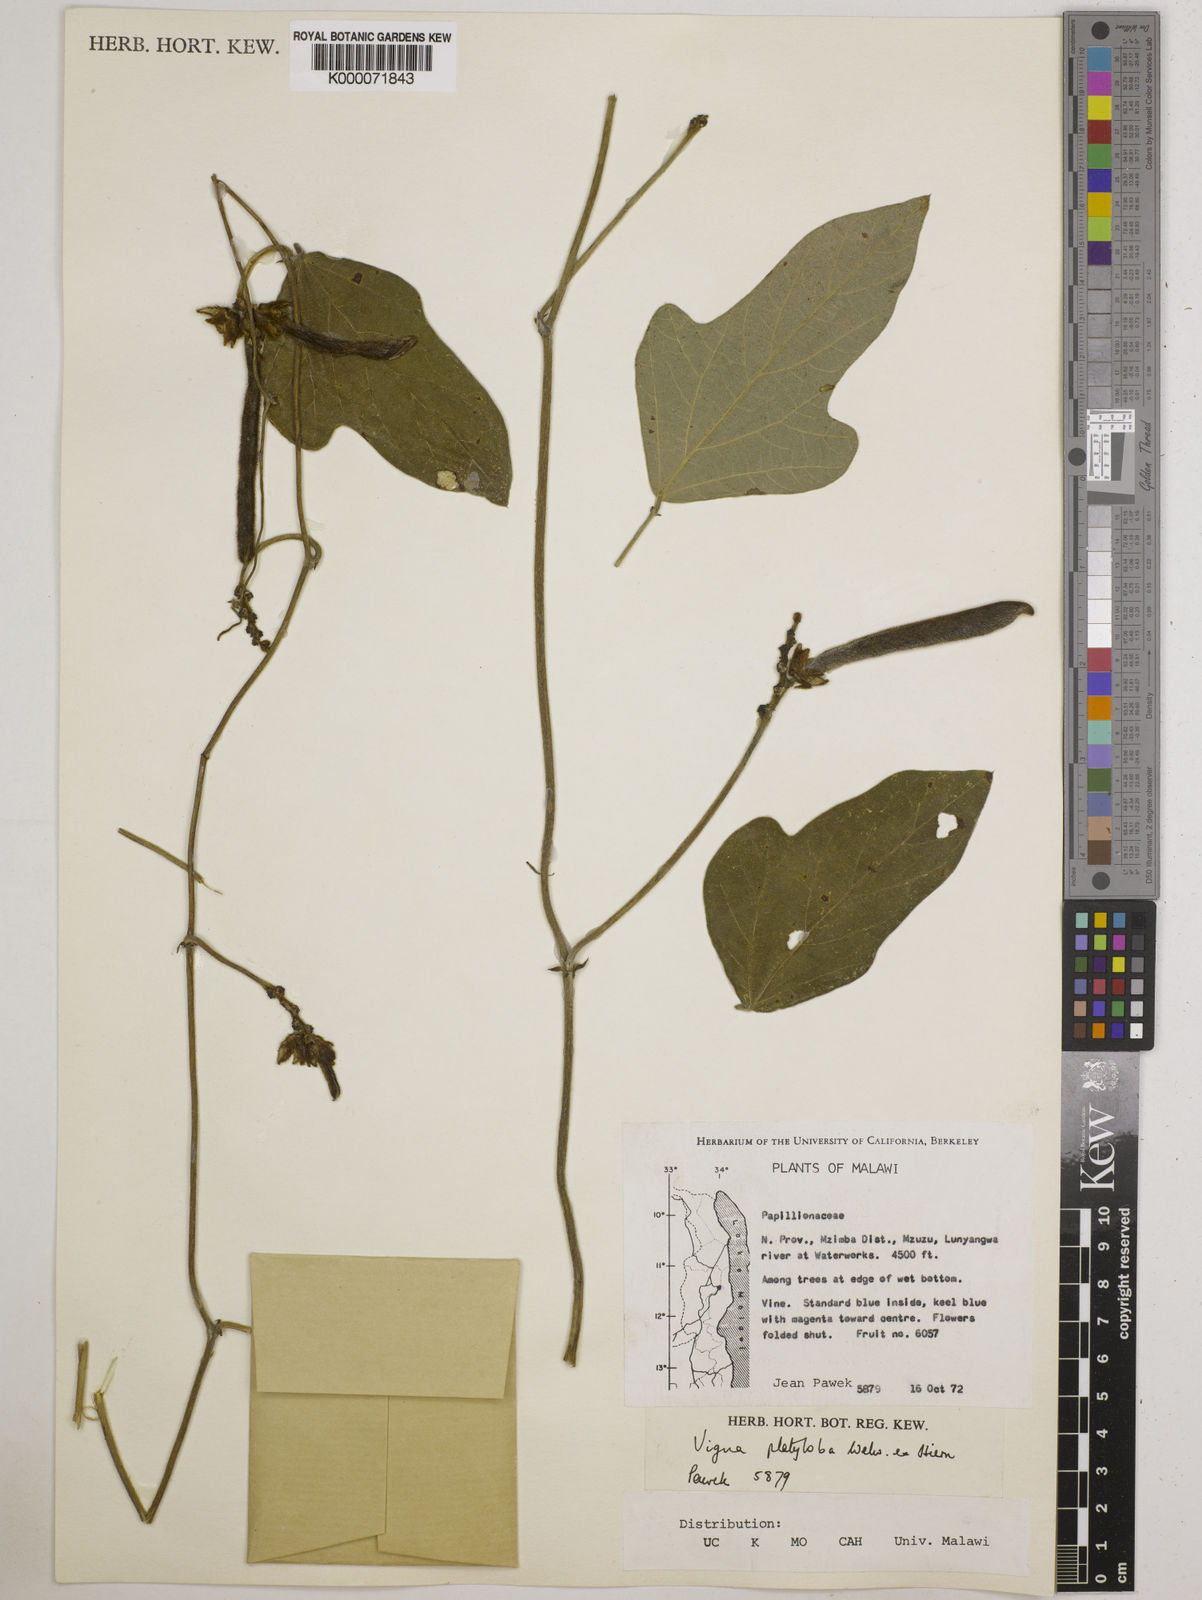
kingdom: Plantae
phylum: Tracheophyta
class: Magnoliopsida
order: Fabales
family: Fabaceae
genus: Vigna
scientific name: Vigna platyloba
